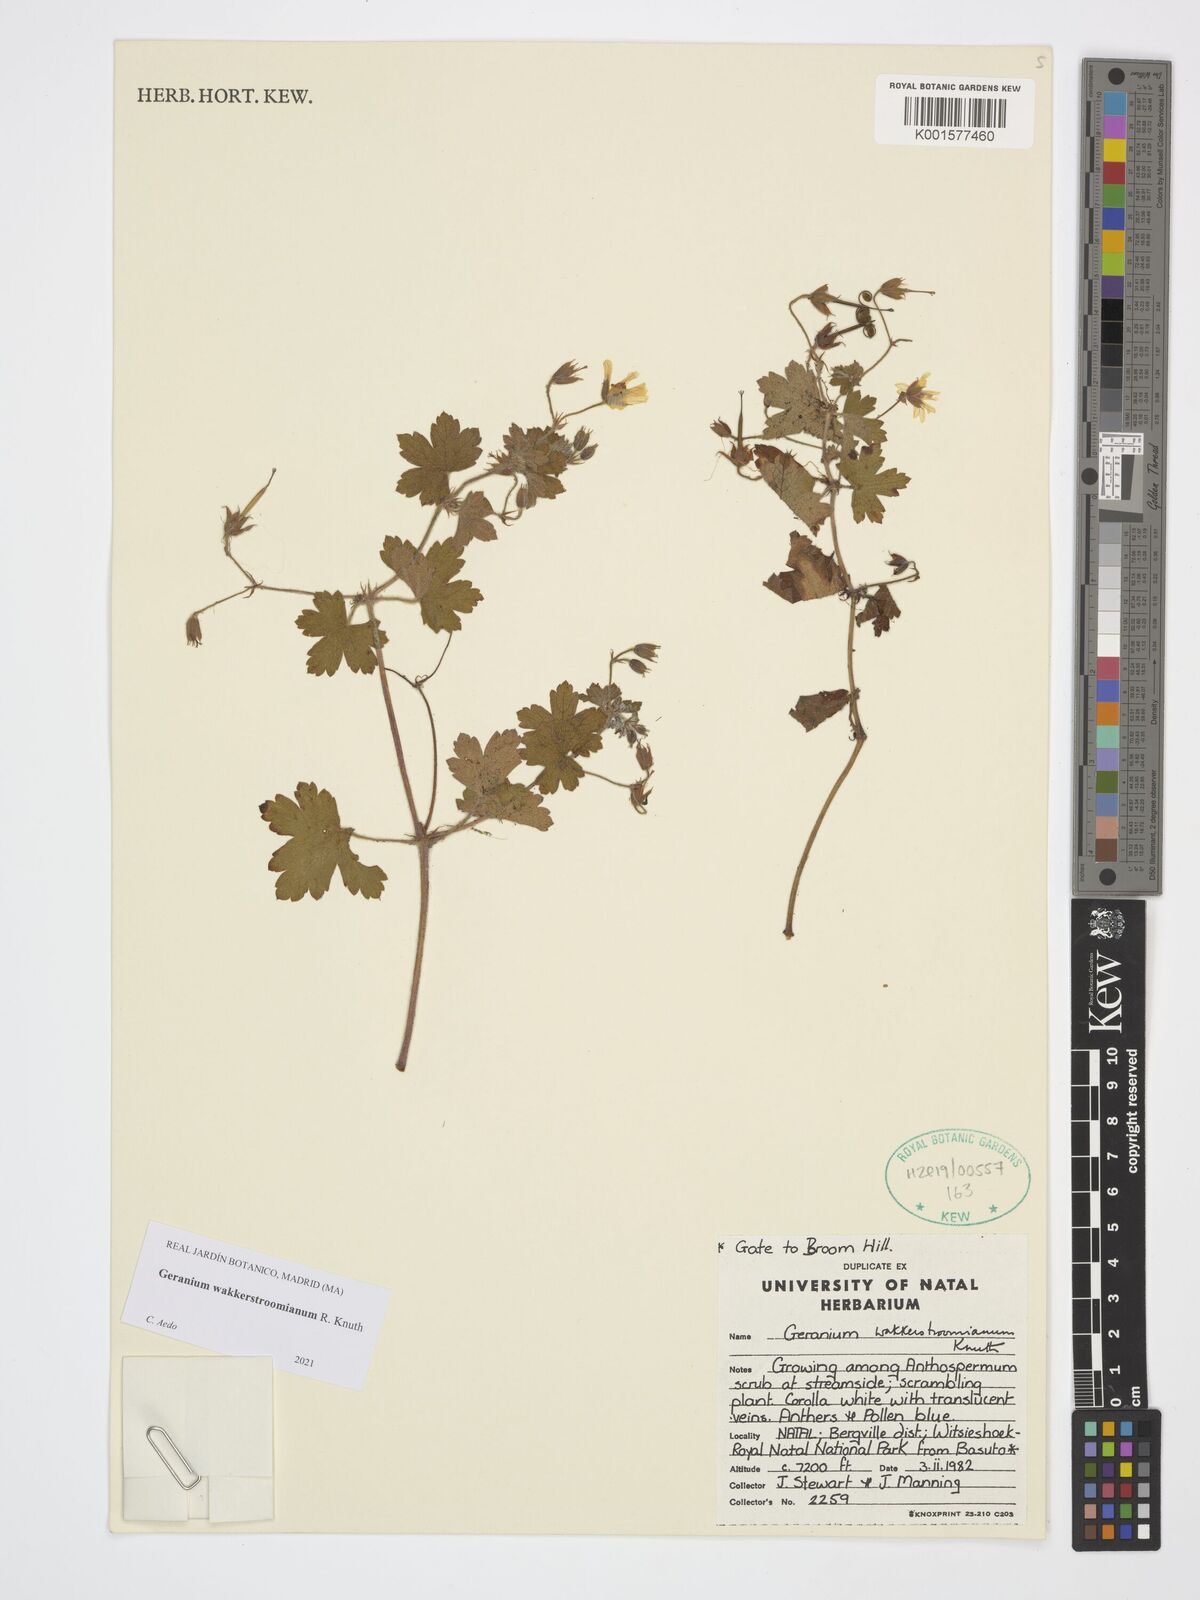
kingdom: Plantae
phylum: Tracheophyta
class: Magnoliopsida
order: Geraniales
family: Geraniaceae
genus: Geranium
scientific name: Geranium wakkerstroomianum
